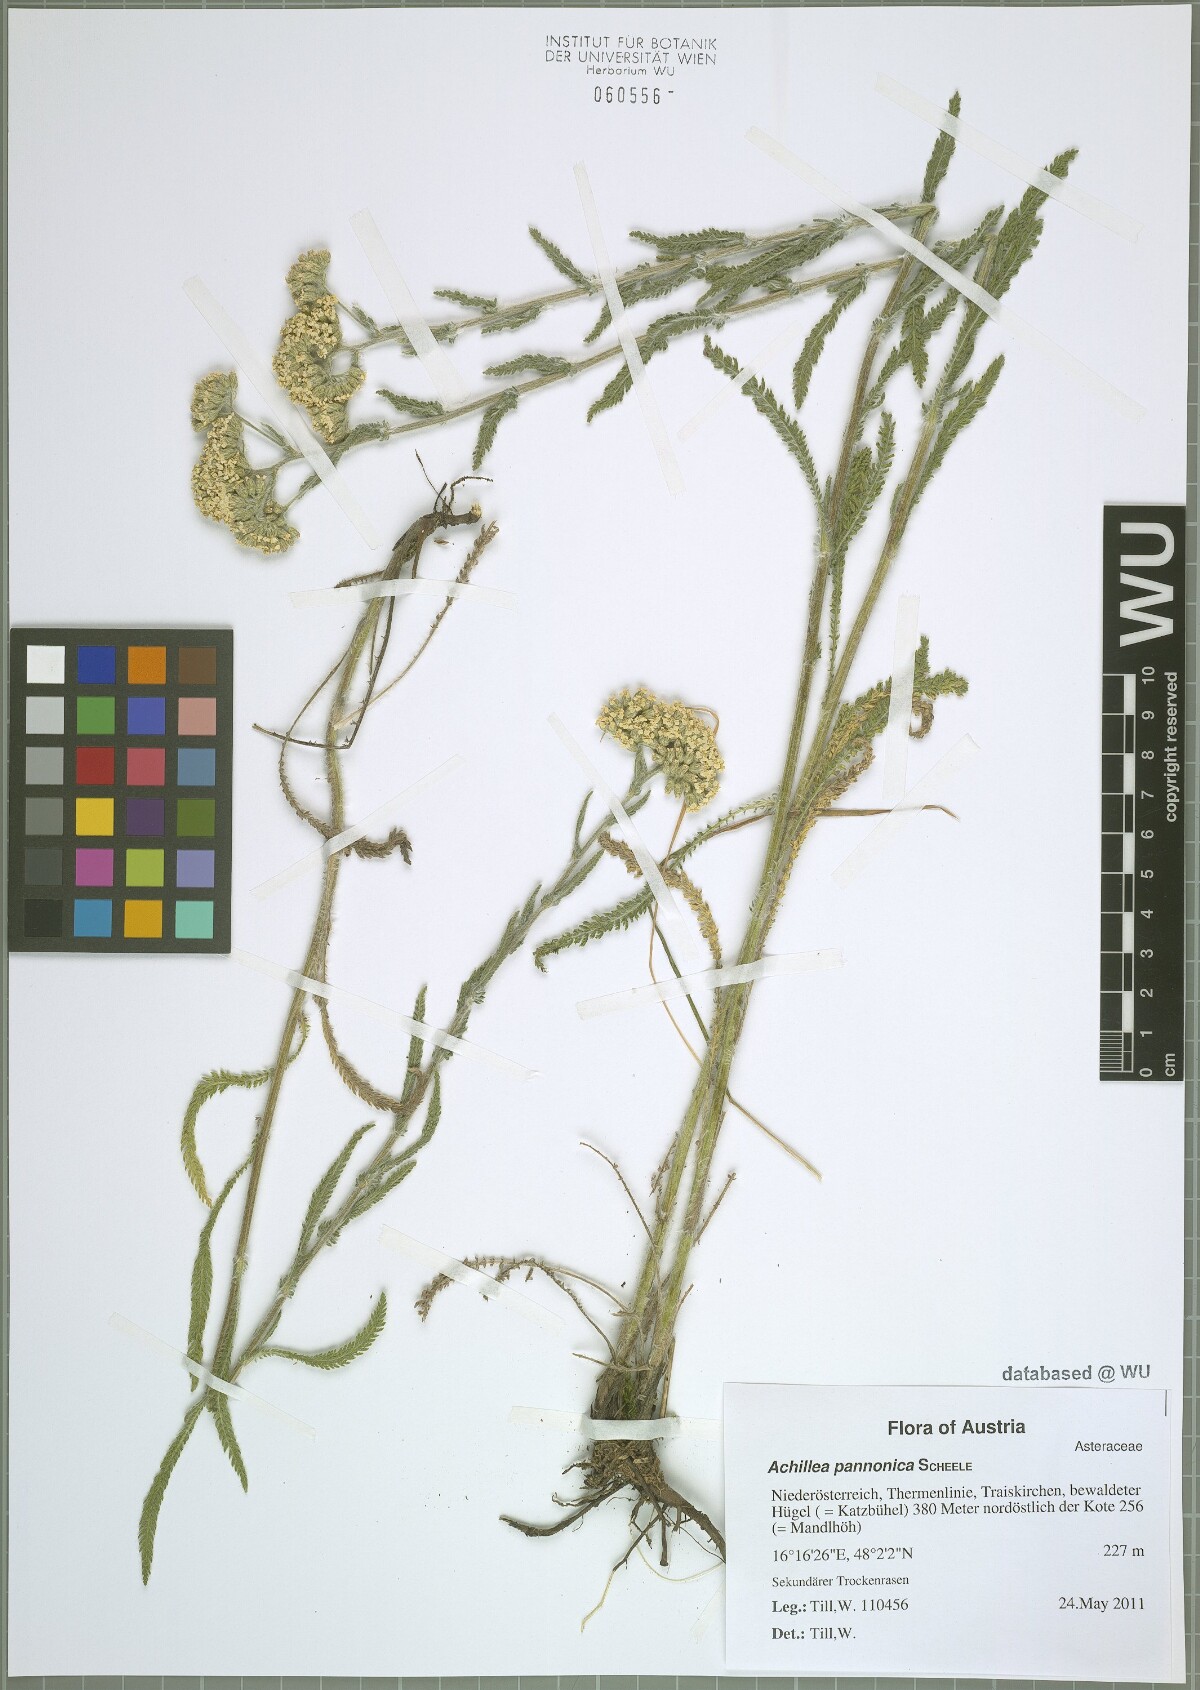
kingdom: Plantae
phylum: Tracheophyta
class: Magnoliopsida
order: Asterales
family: Asteraceae
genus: Achillea
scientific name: Achillea pannonica
